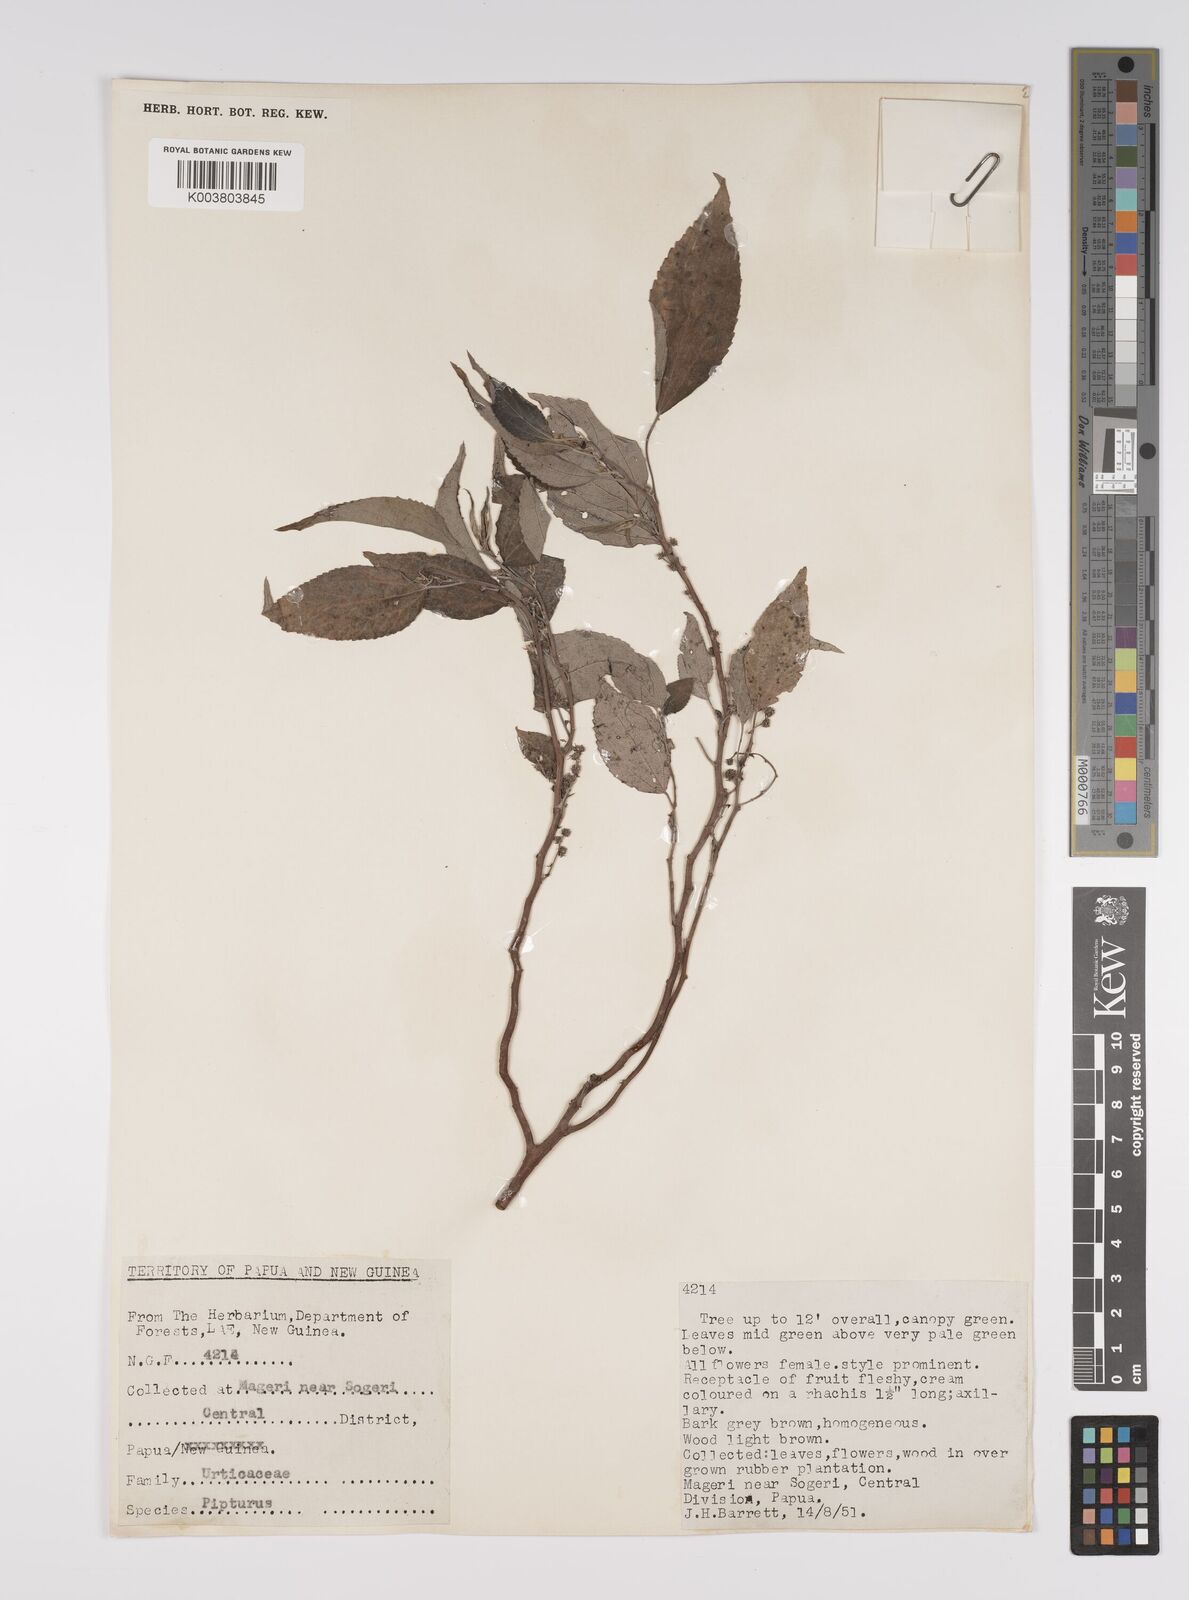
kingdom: Plantae
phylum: Tracheophyta
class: Magnoliopsida
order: Rosales
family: Urticaceae
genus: Pipturus
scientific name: Pipturus argenteus
